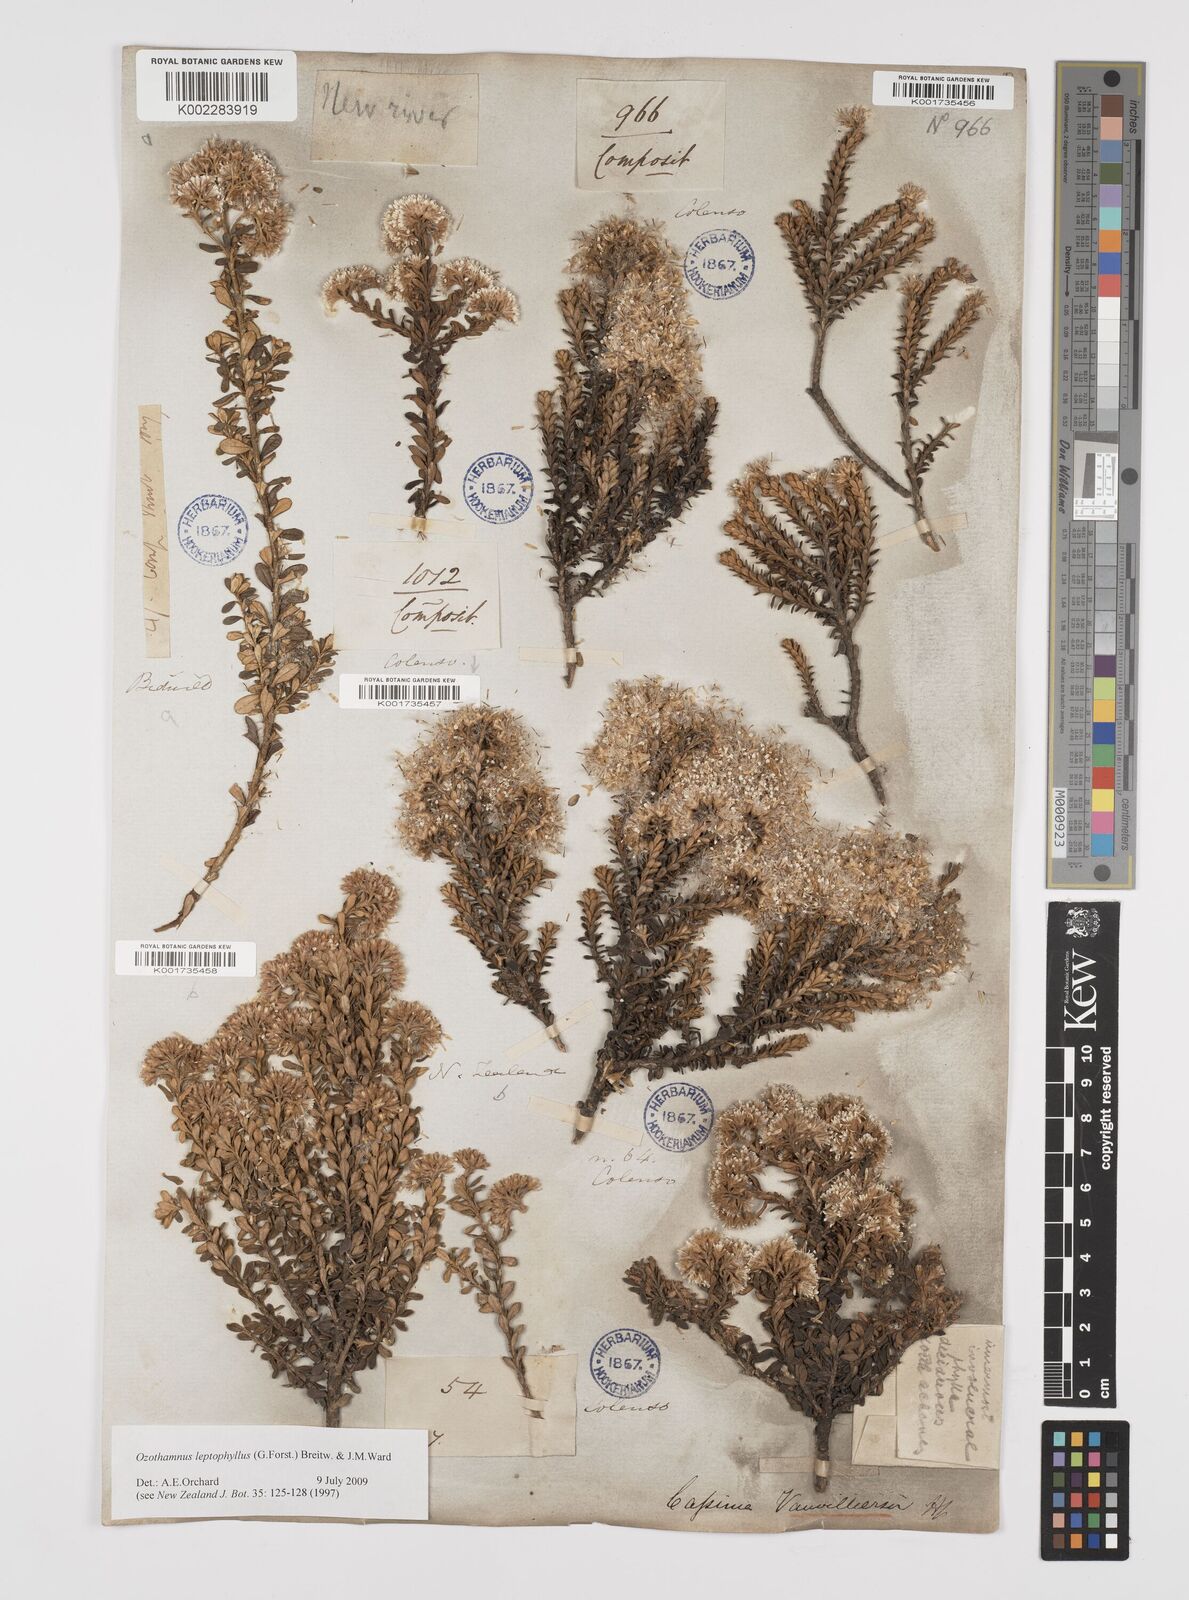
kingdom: Plantae
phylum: Tracheophyta
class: Magnoliopsida
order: Asterales
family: Asteraceae
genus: Ozothamnus
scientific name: Ozothamnus leptophyllus
